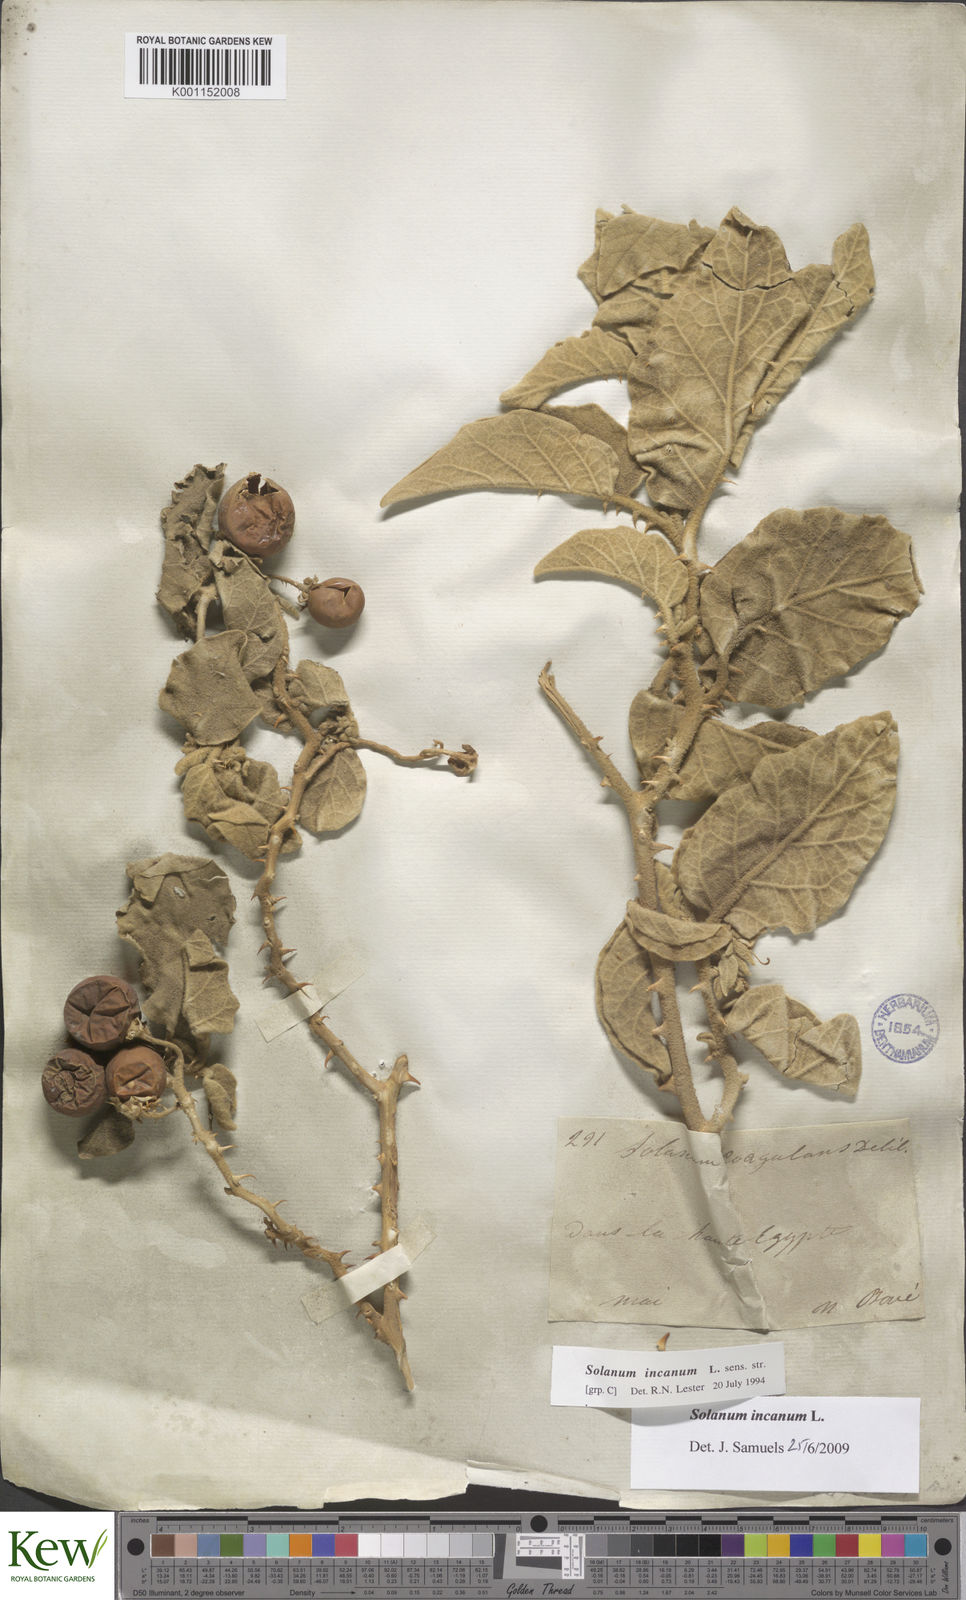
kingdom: Plantae
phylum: Tracheophyta
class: Magnoliopsida
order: Solanales
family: Solanaceae
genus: Solanum
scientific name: Solanum incanum
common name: Bitter apple
